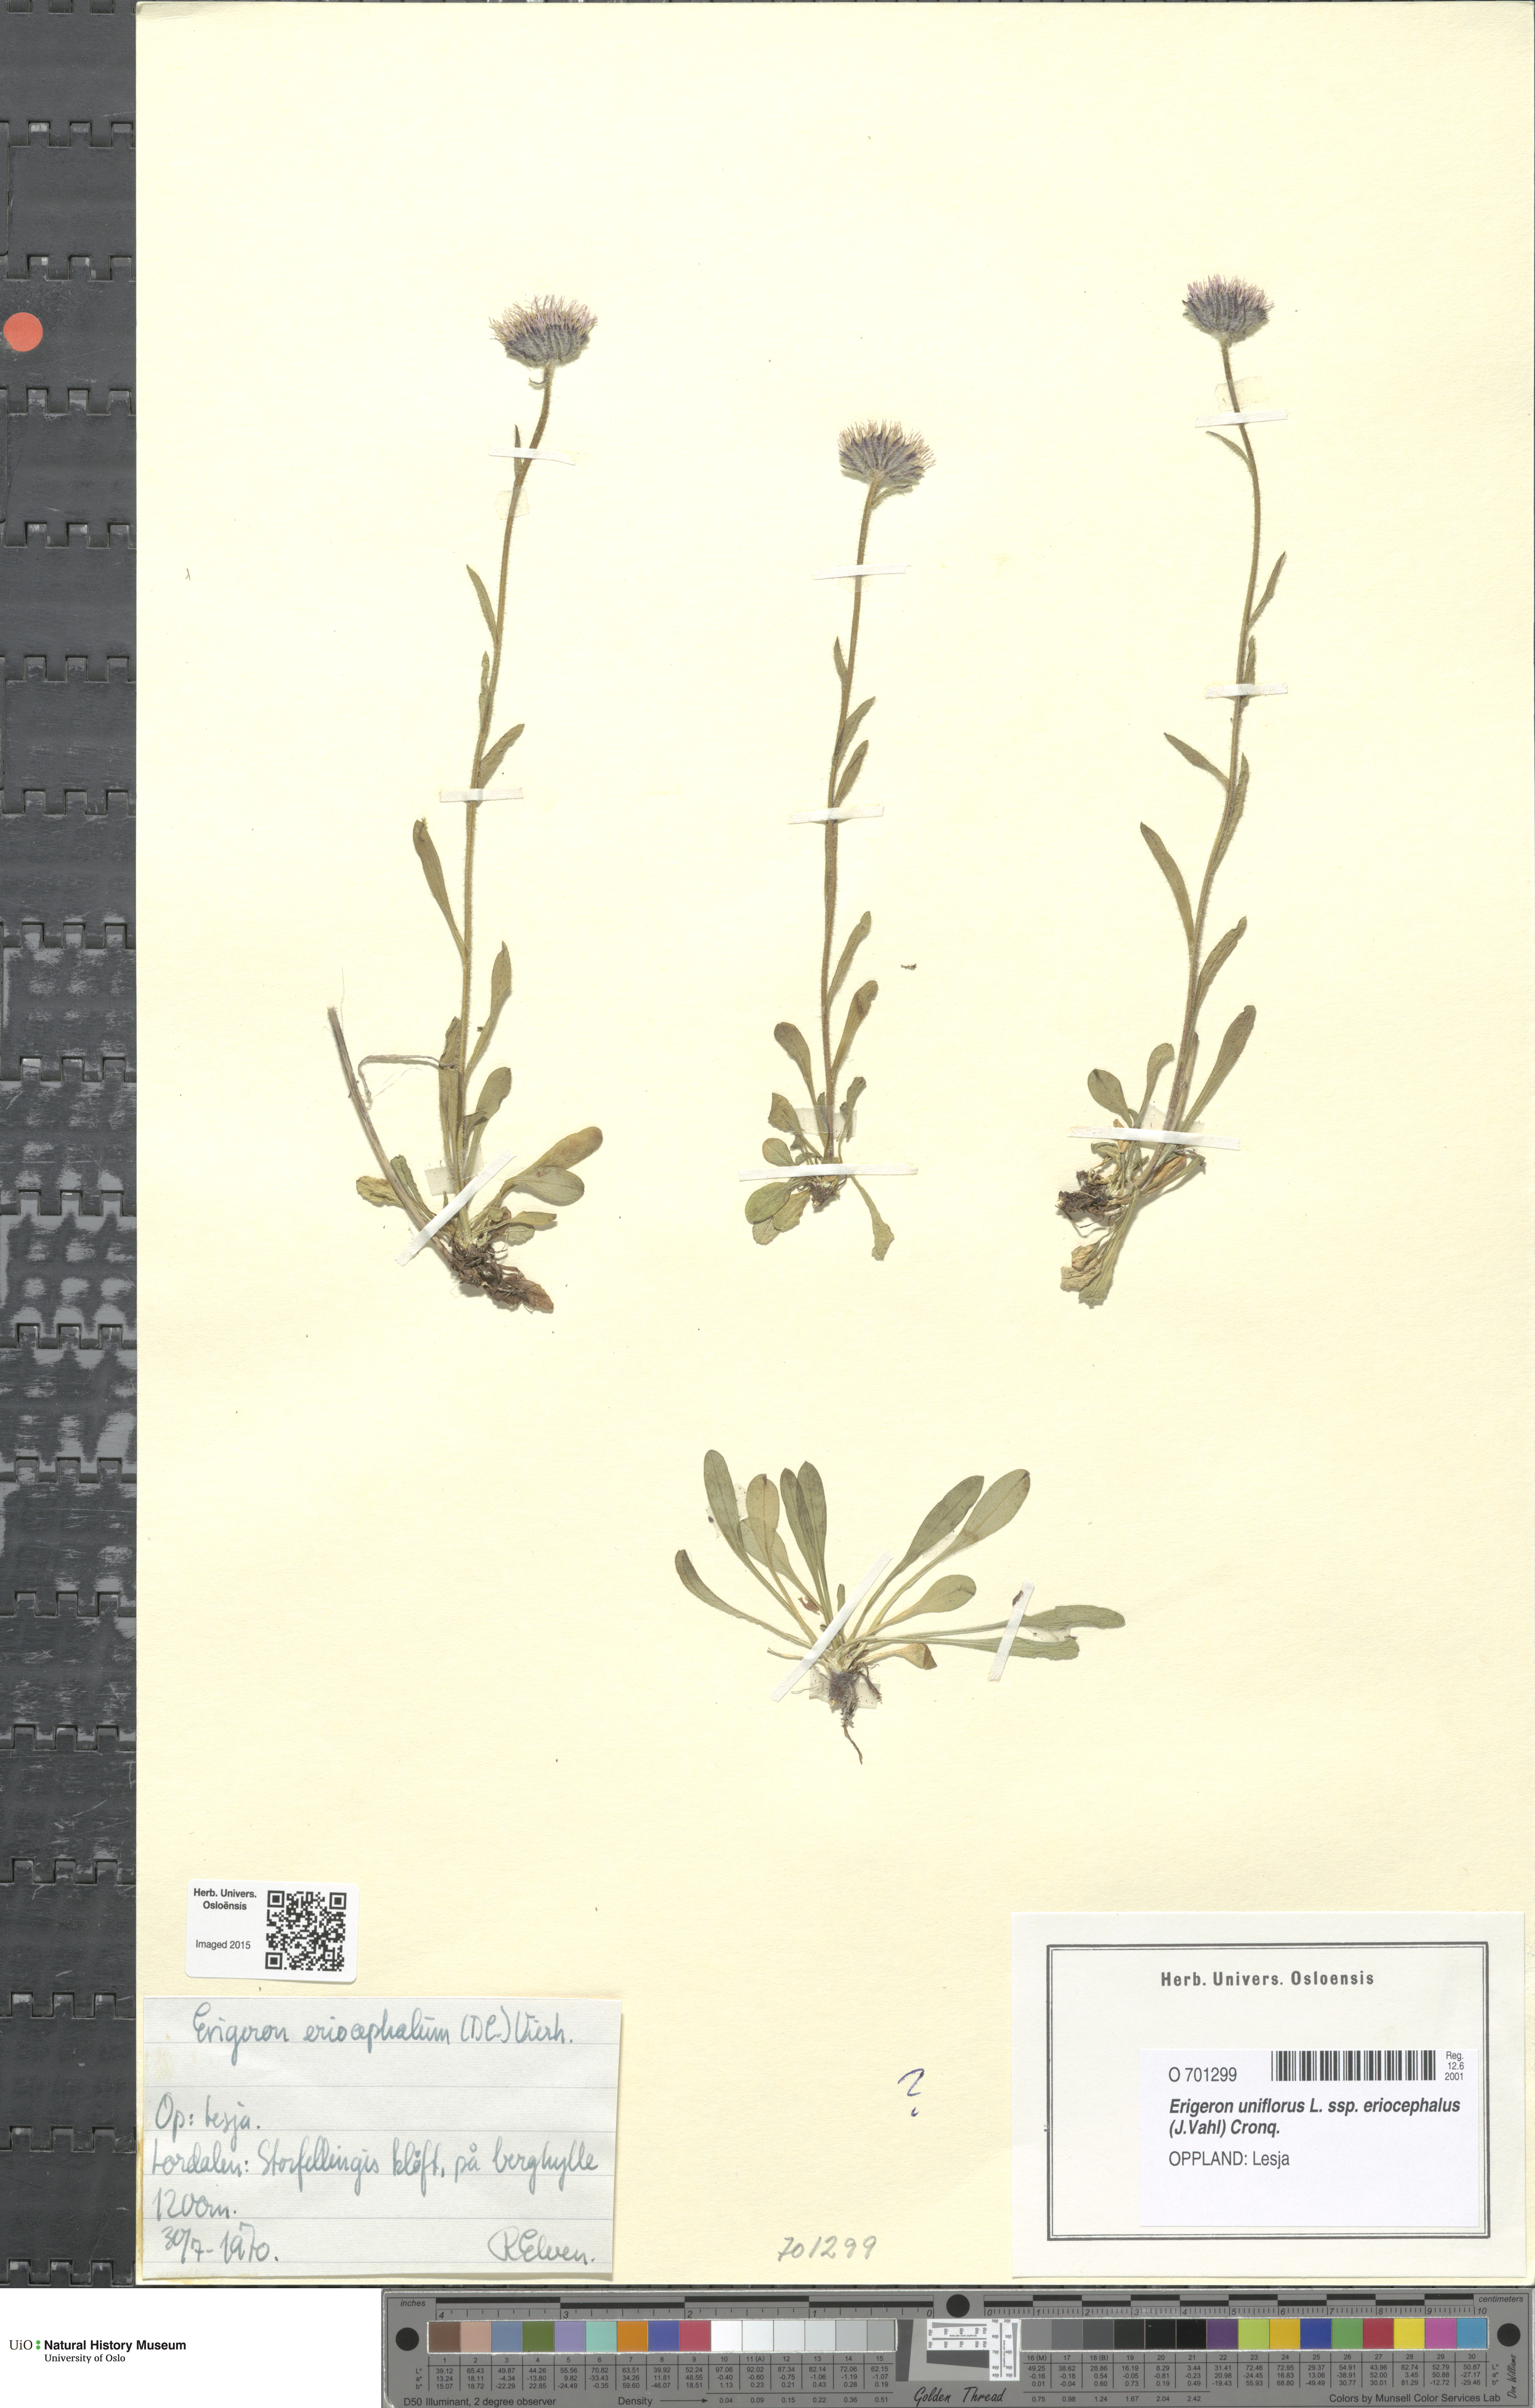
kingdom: Plantae
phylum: Tracheophyta
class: Magnoliopsida
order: Asterales
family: Asteraceae
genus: Erigeron
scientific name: Erigeron eriocephalus
